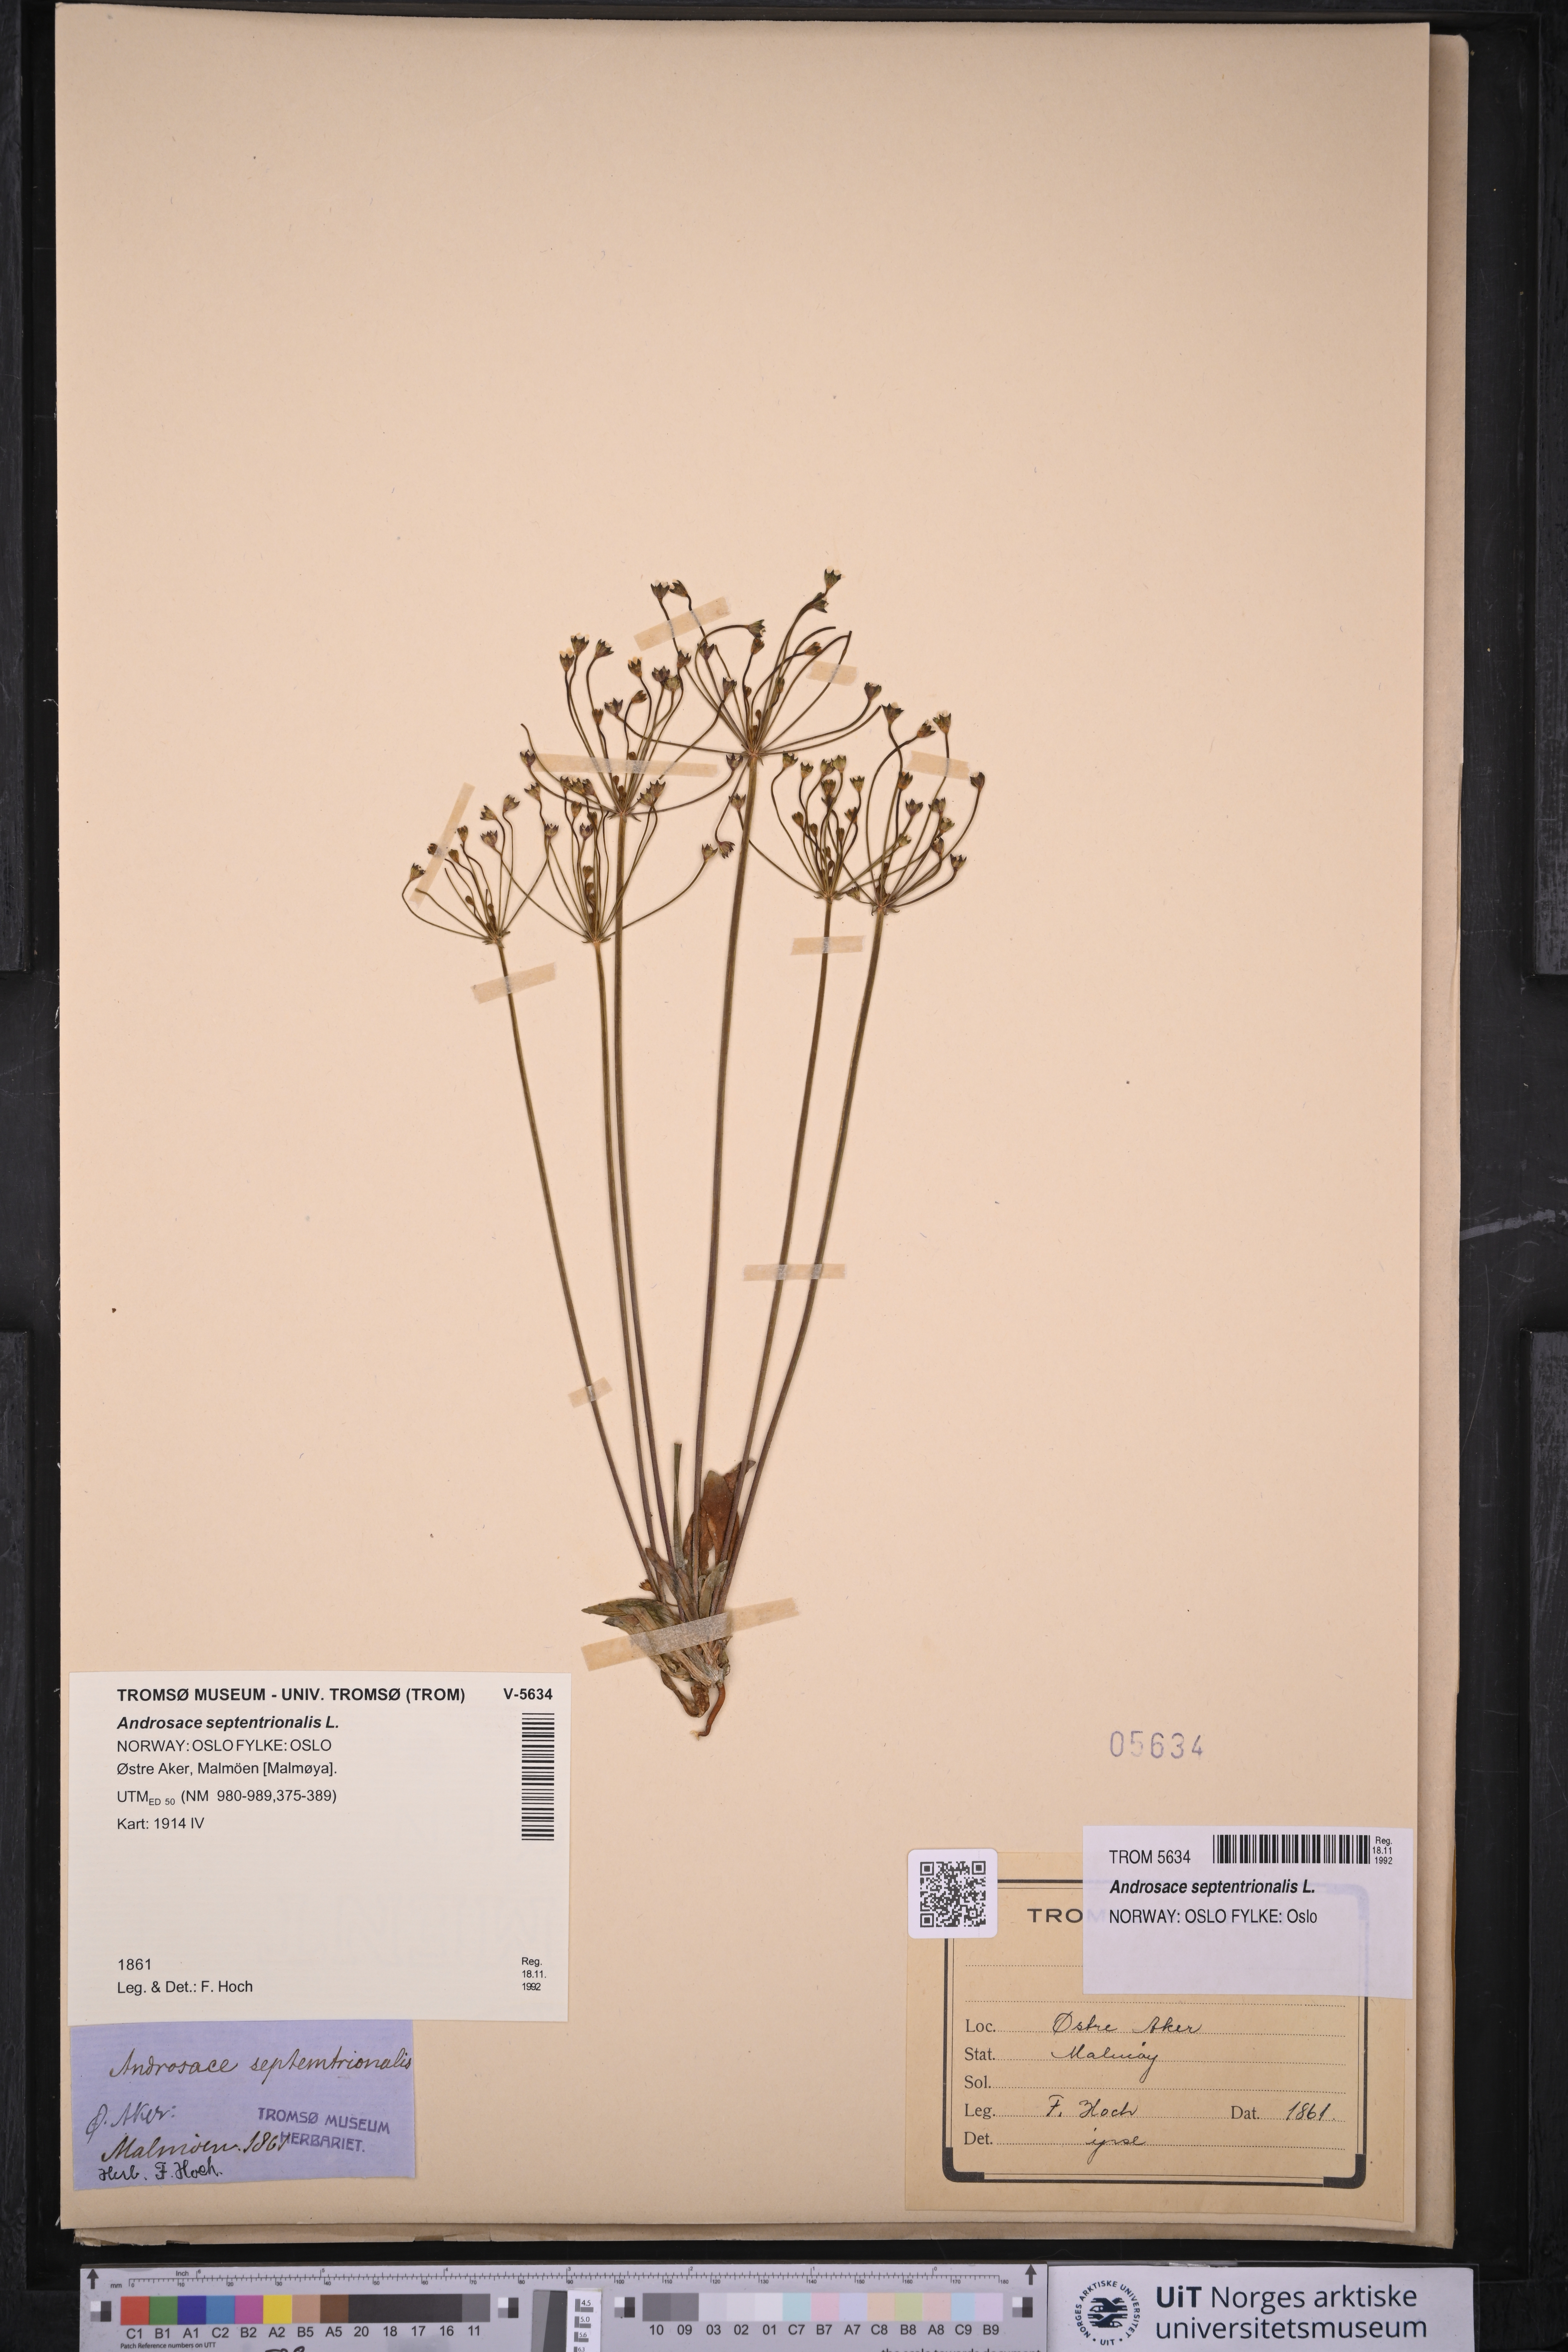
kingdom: Plantae
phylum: Tracheophyta
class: Magnoliopsida
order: Ericales
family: Primulaceae
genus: Androsace
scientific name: Androsace septentrionalis
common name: Hairy northern fairy-candelabra
